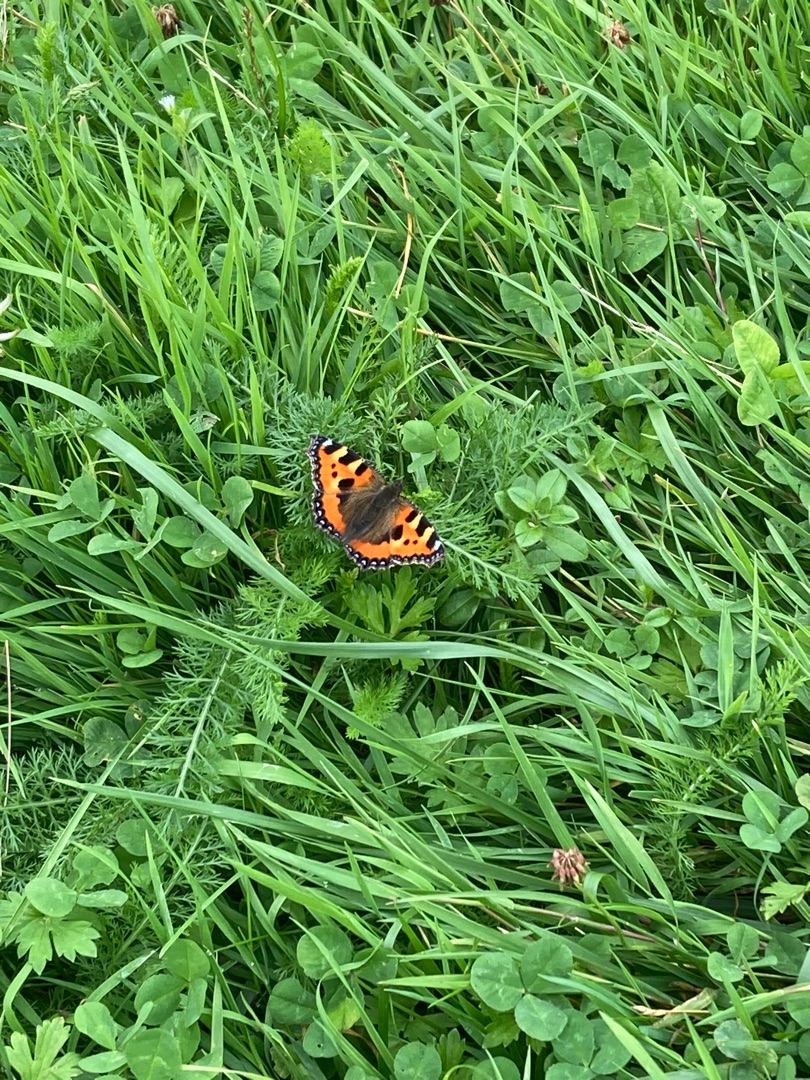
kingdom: Animalia
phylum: Arthropoda
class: Insecta
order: Lepidoptera
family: Nymphalidae
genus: Aglais
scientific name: Aglais urticae
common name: Nældens takvinge
